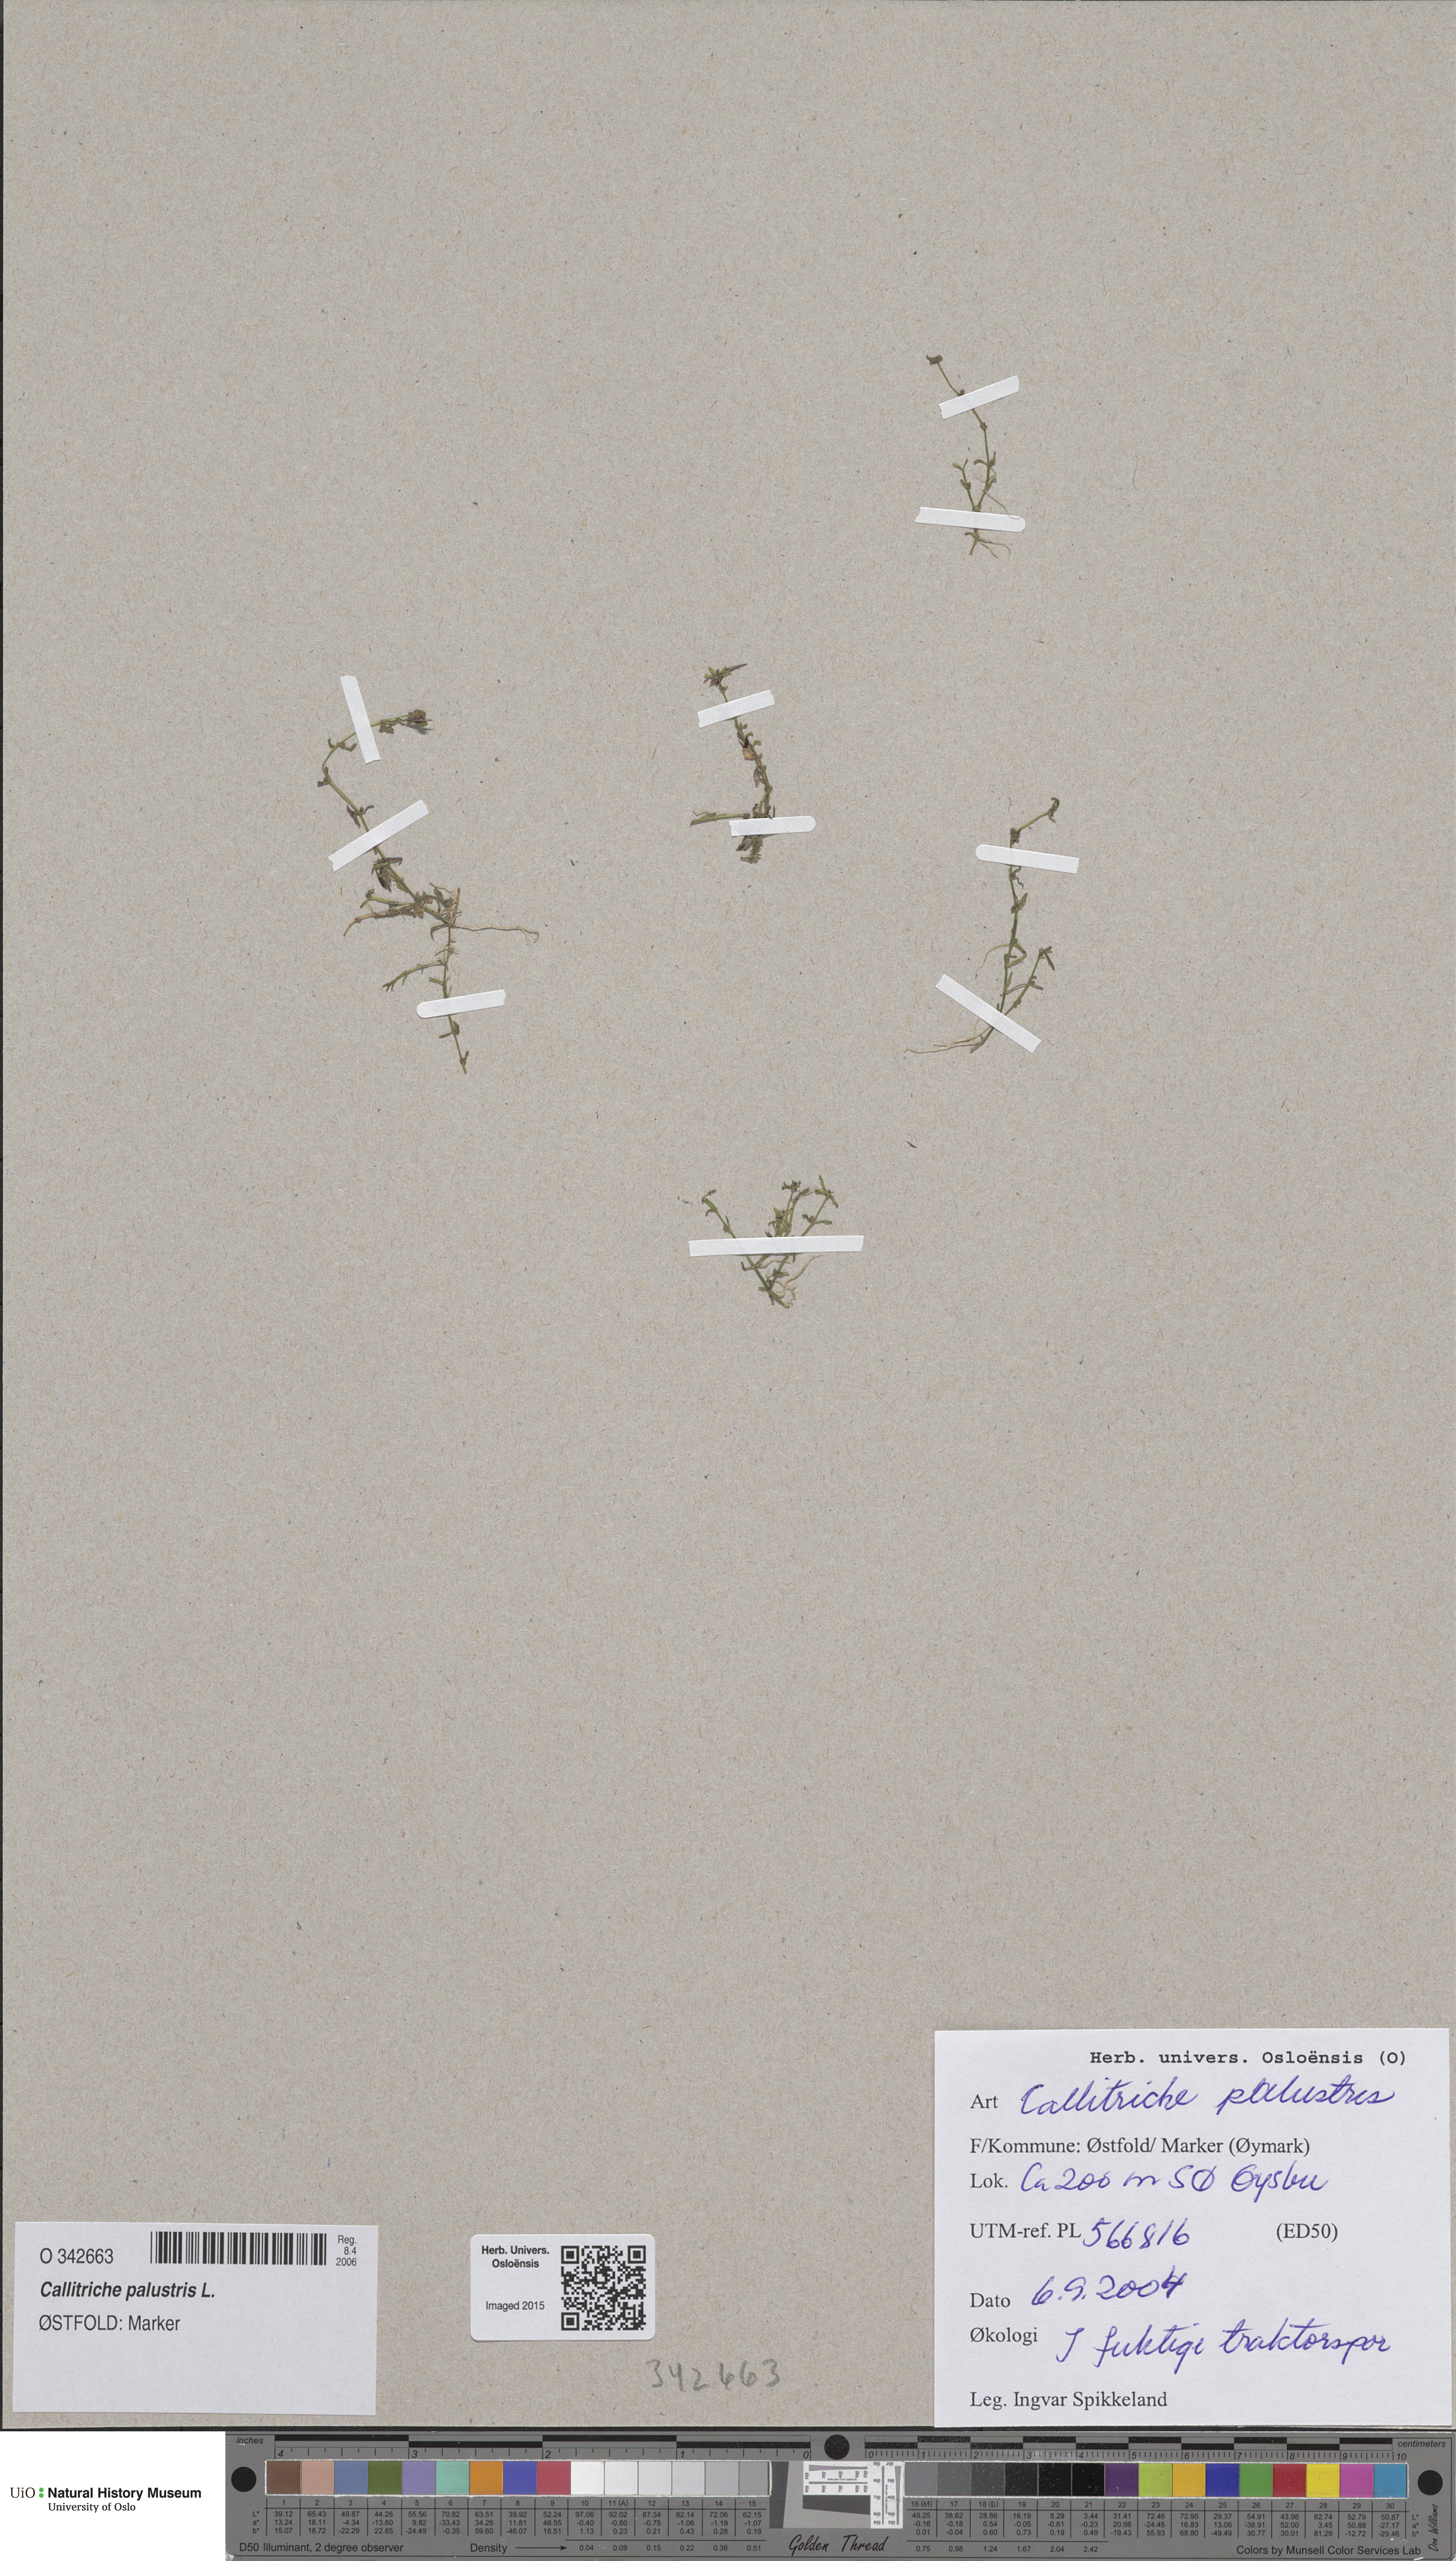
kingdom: Plantae
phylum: Tracheophyta
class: Magnoliopsida
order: Lamiales
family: Plantaginaceae
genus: Callitriche
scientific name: Callitriche palustris
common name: Spring water-starwort
